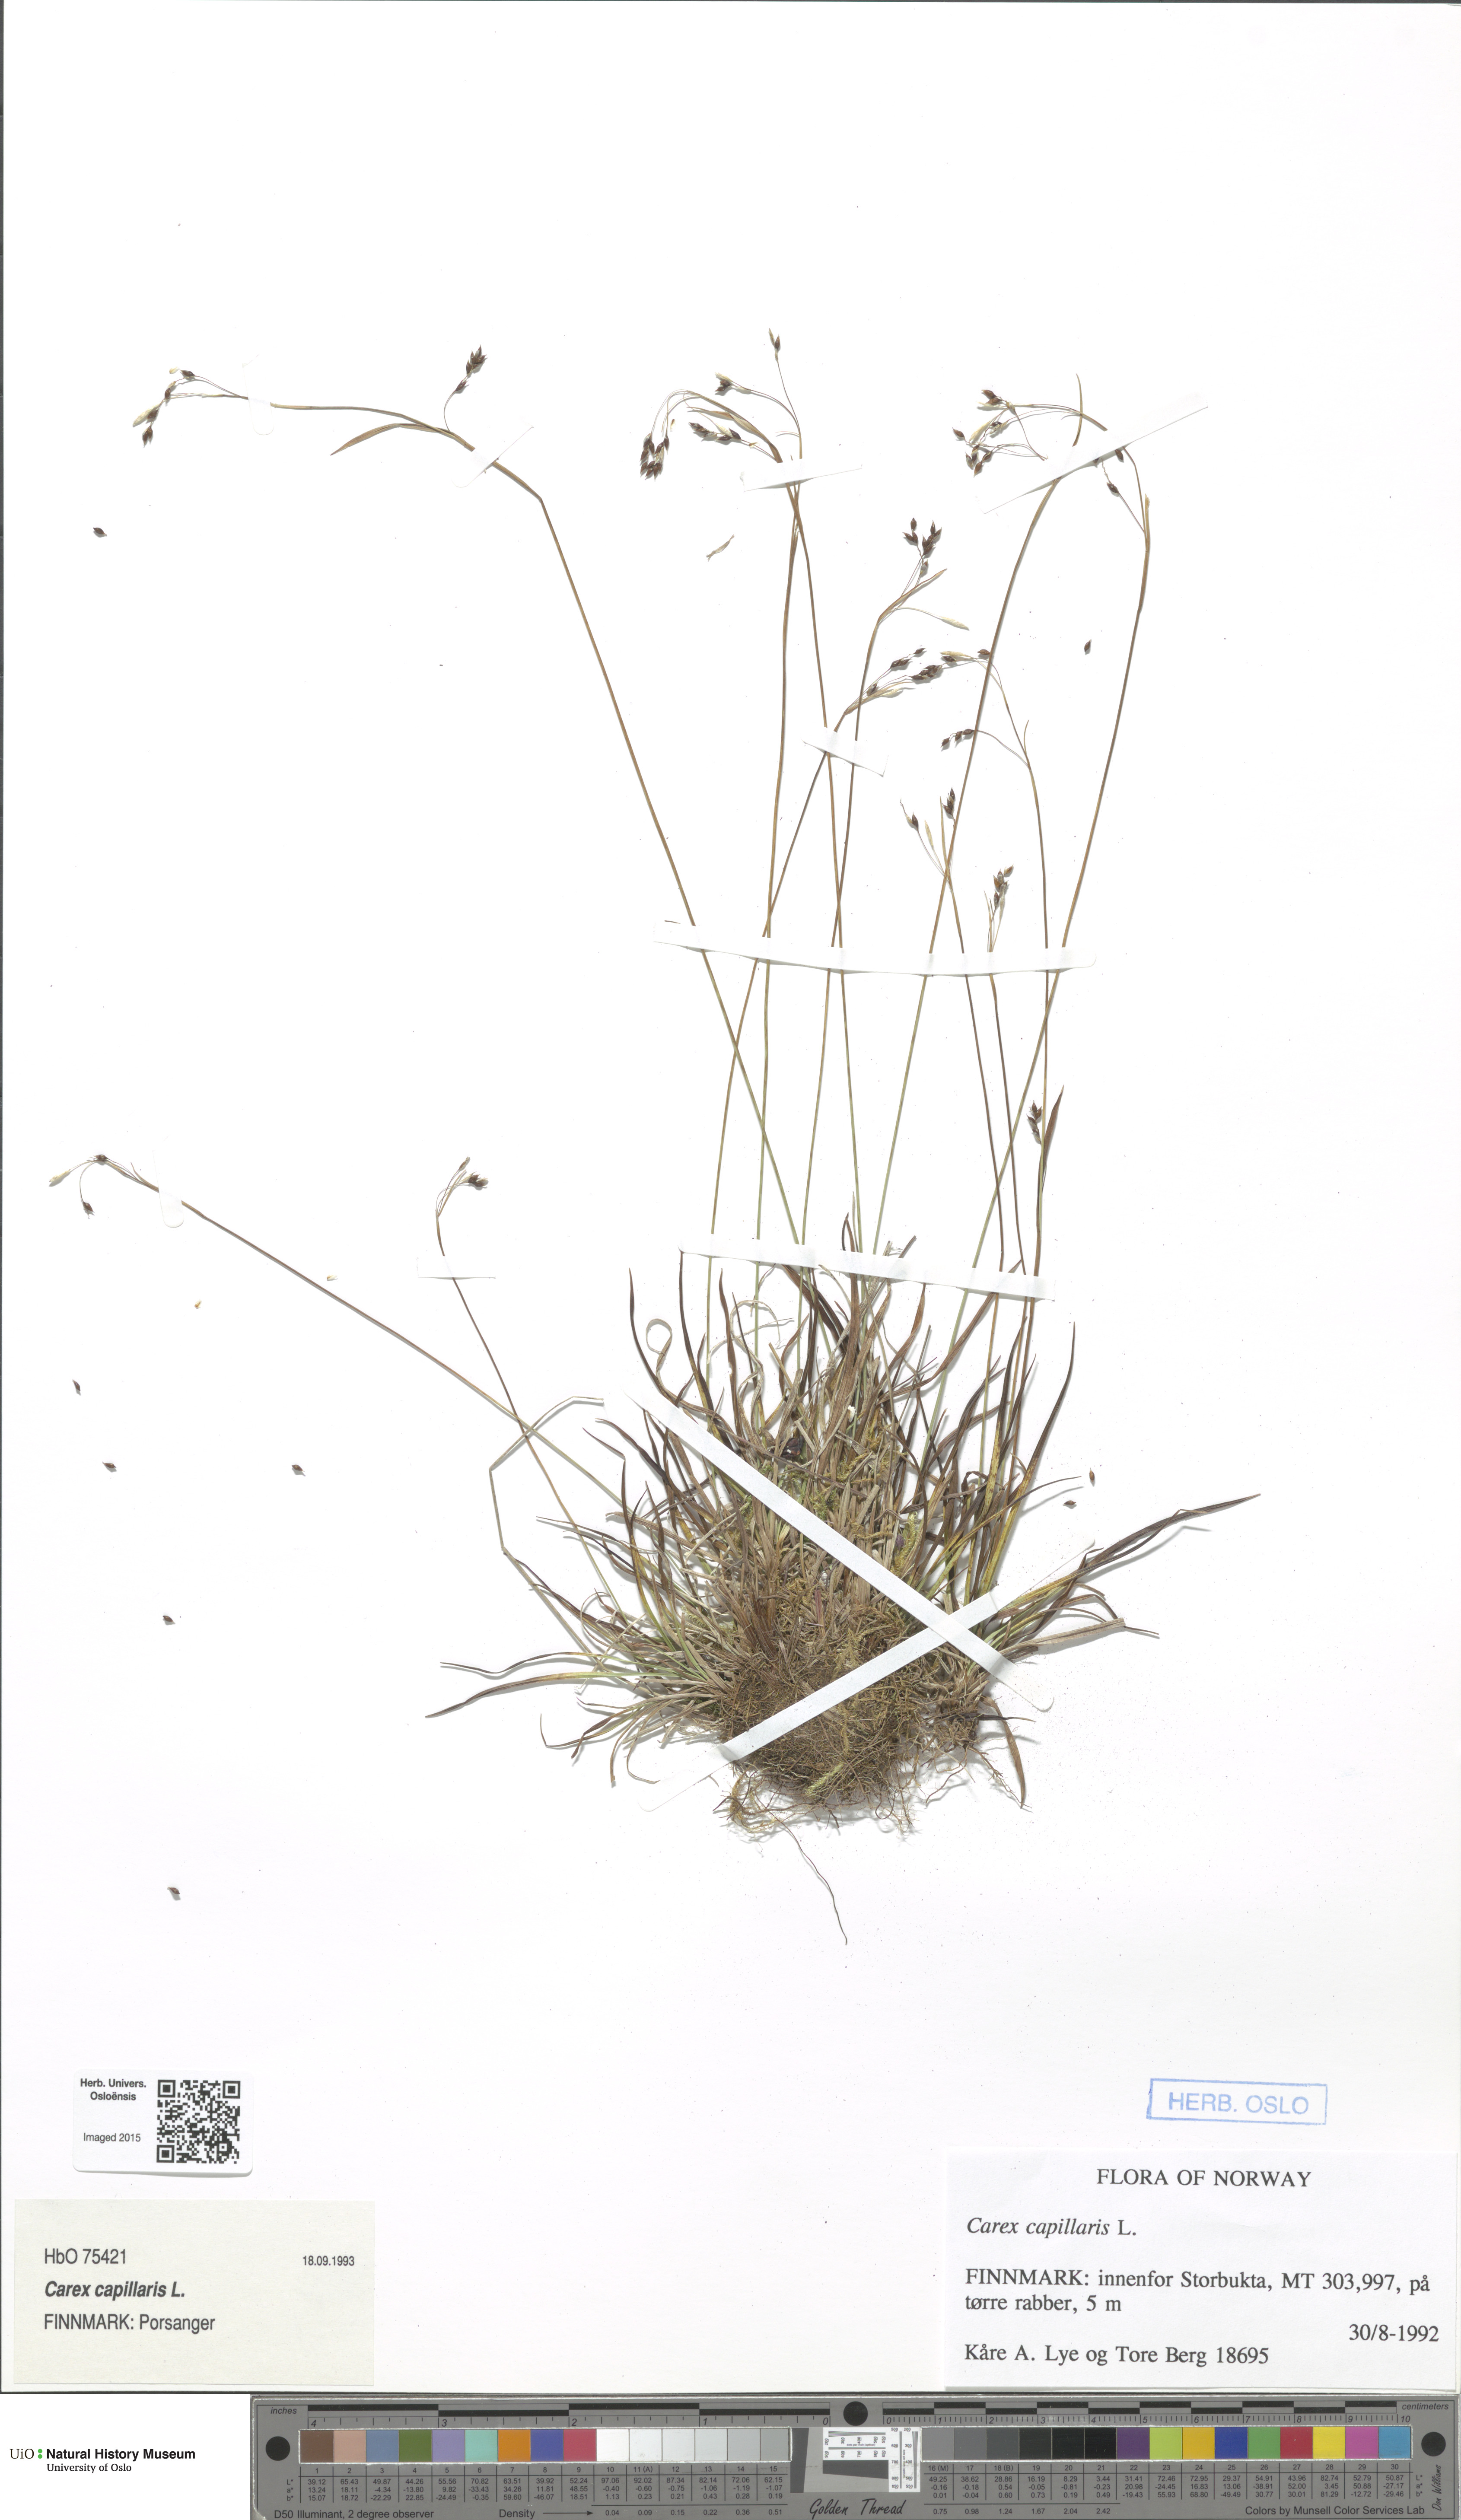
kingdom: Plantae
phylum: Tracheophyta
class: Liliopsida
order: Poales
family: Cyperaceae
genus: Carex
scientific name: Carex capillaris
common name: Hair sedge
